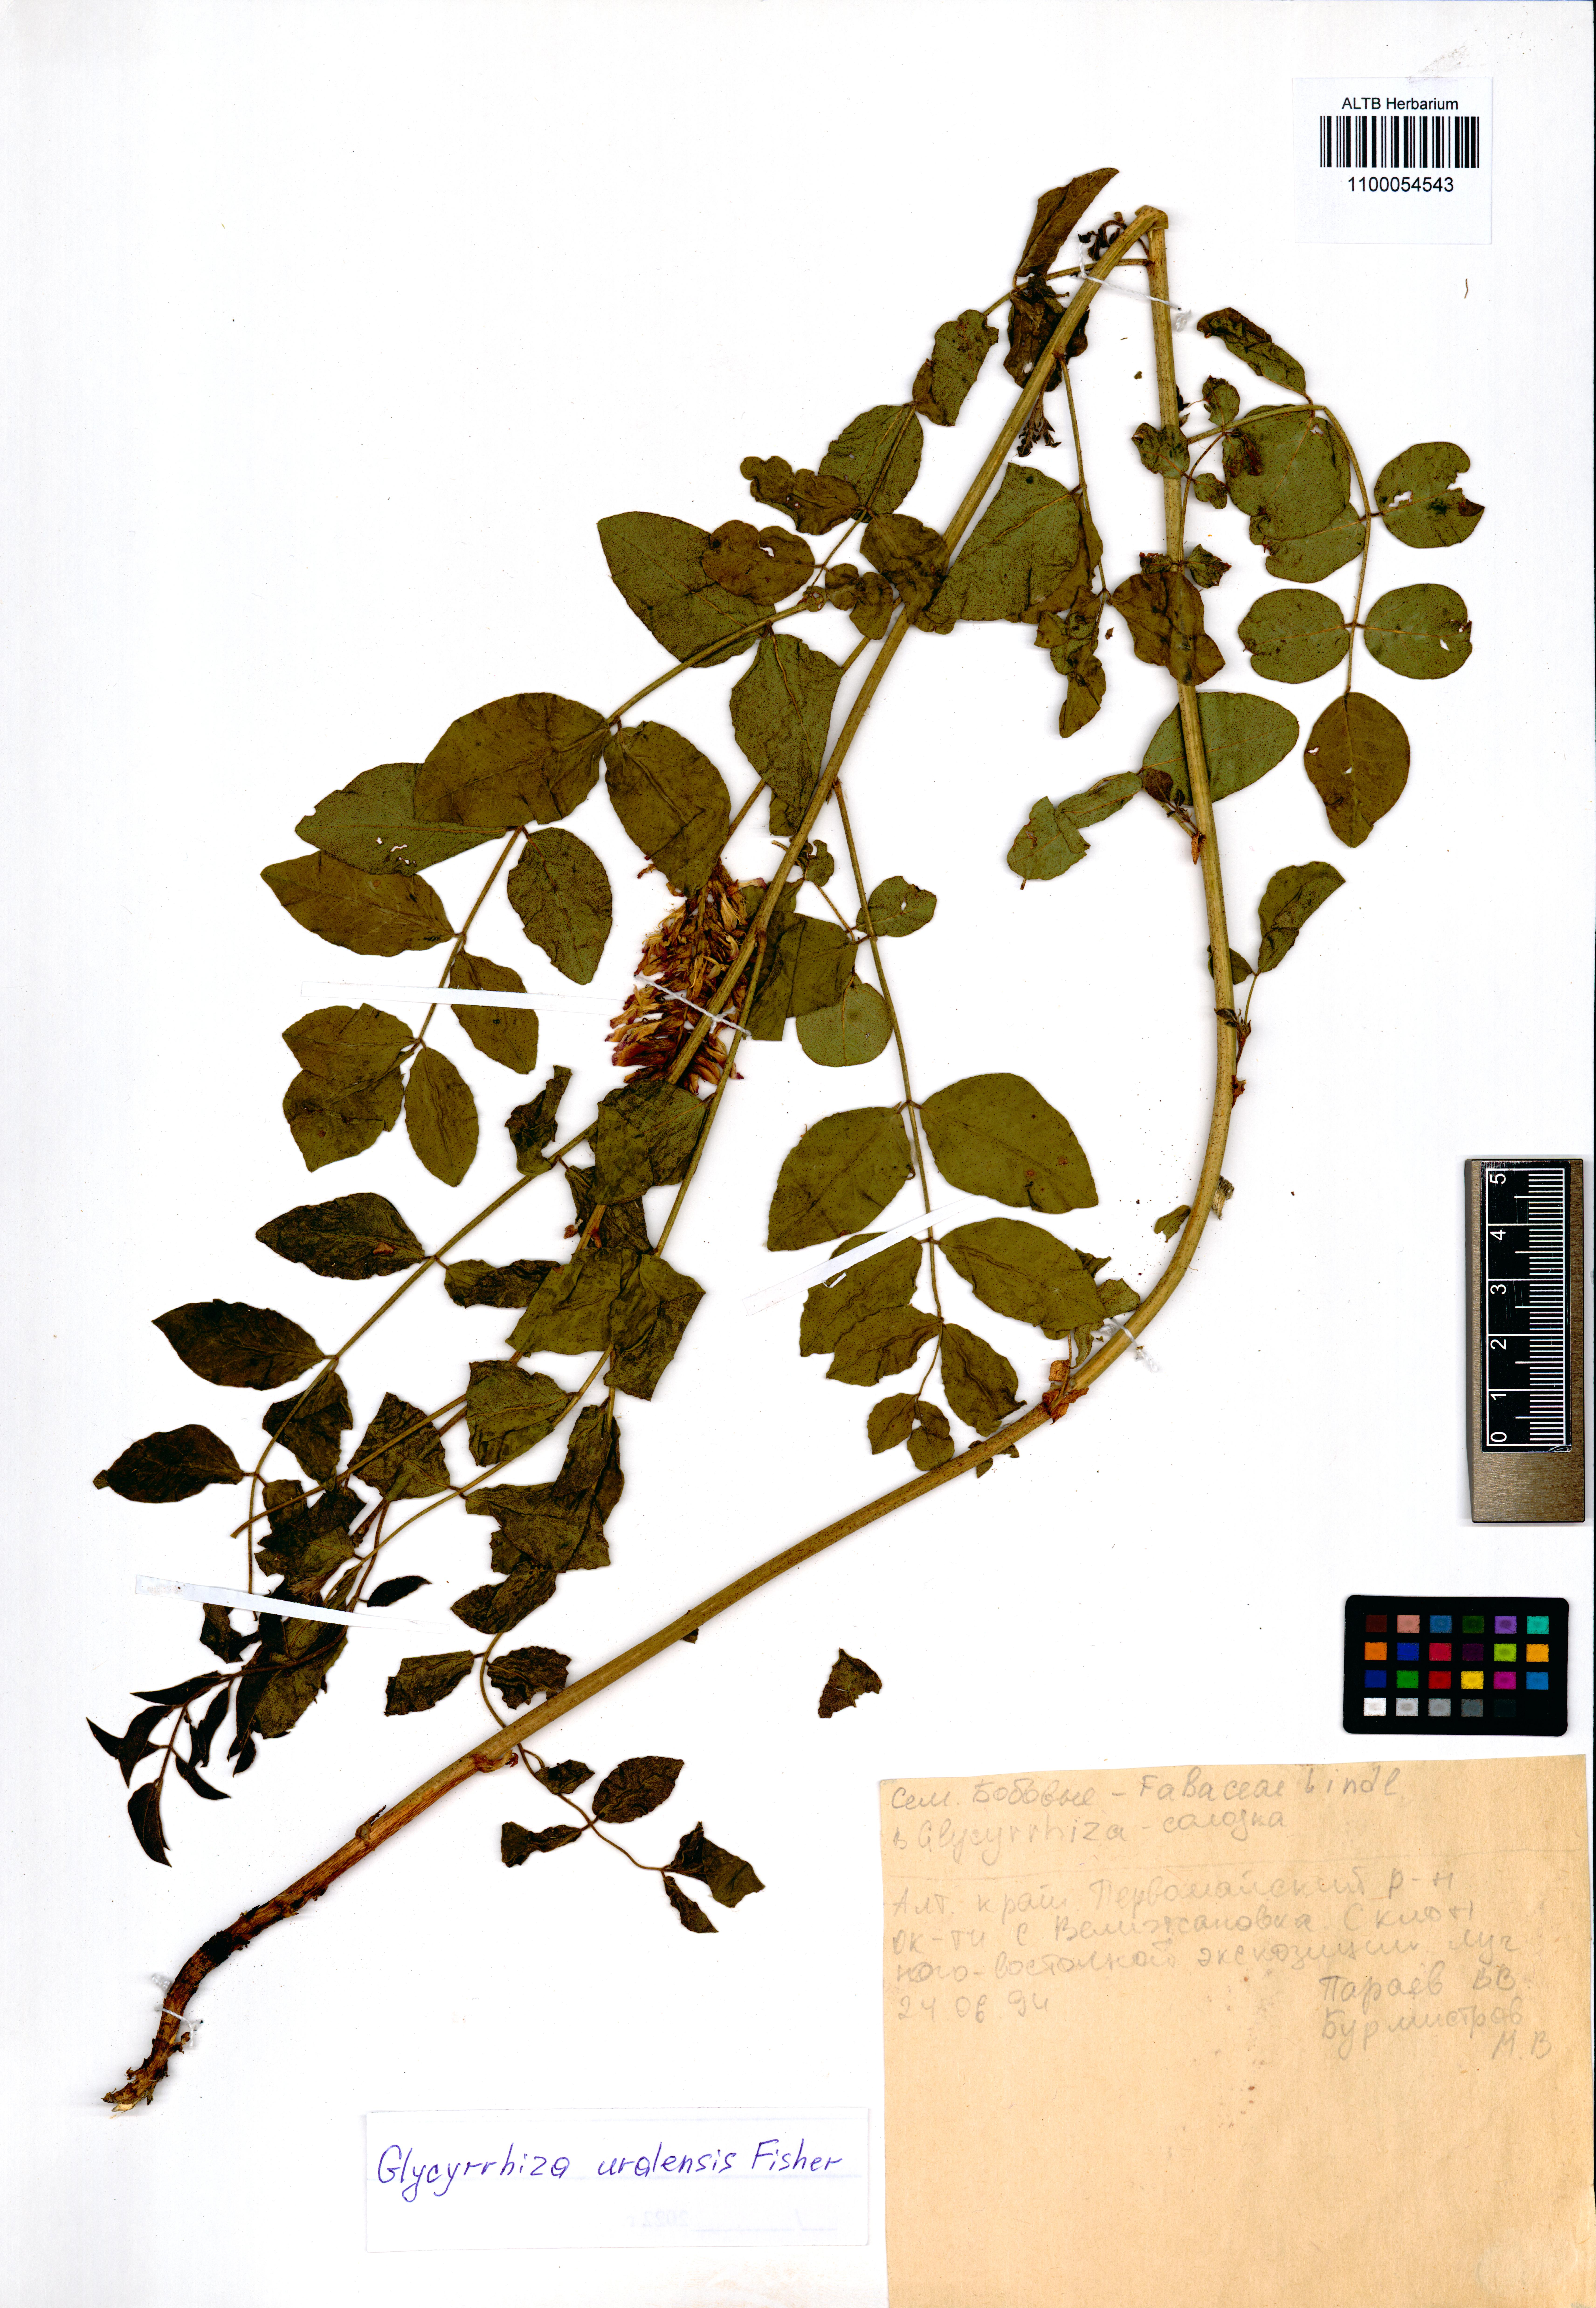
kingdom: Plantae
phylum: Tracheophyta
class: Magnoliopsida
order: Fabales
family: Fabaceae
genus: Glycyrrhiza
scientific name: Glycyrrhiza uralensis
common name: Chinese licorice
